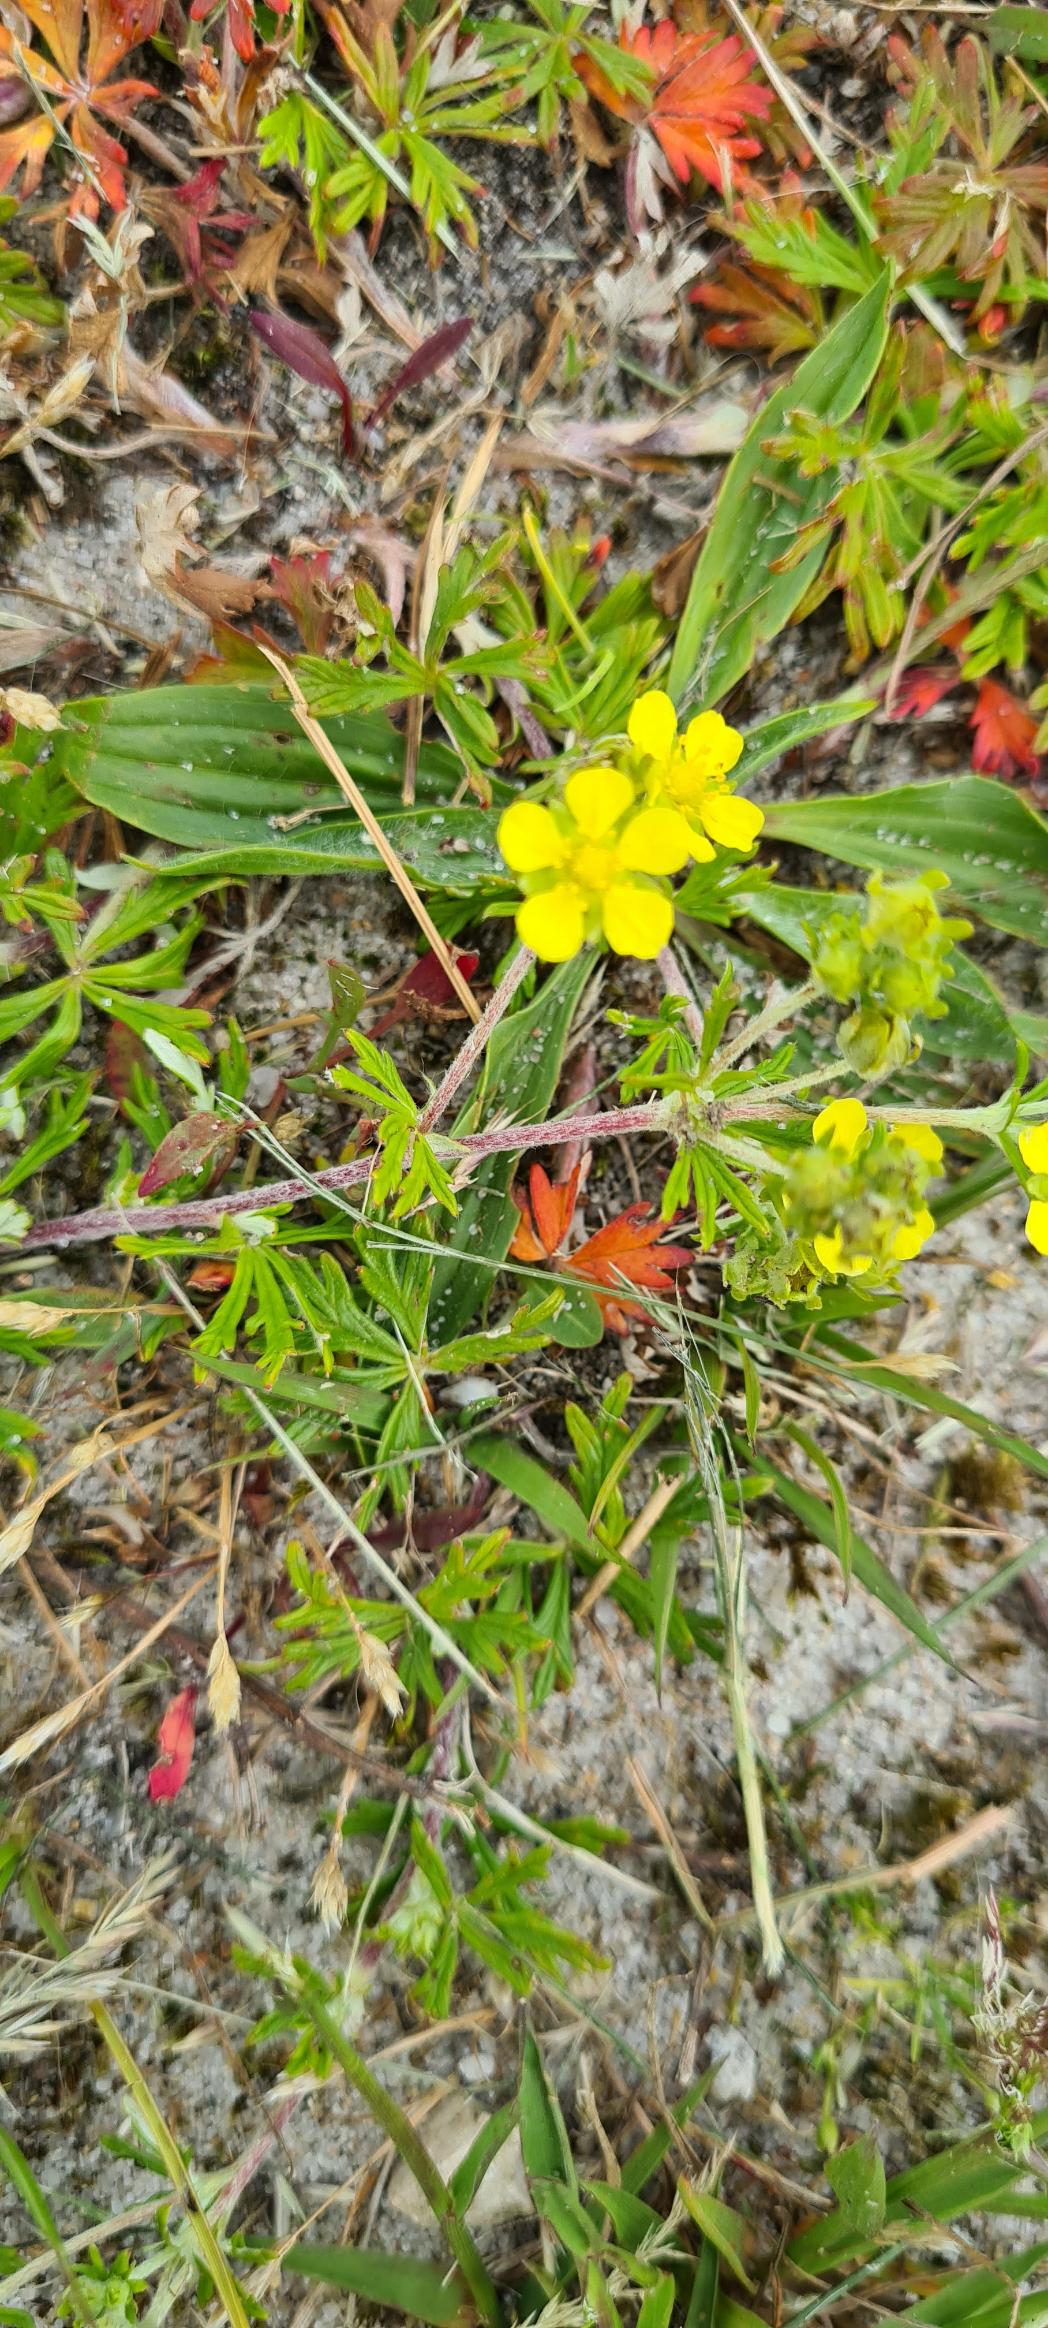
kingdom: Plantae
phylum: Tracheophyta
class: Magnoliopsida
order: Rosales
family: Rosaceae
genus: Potentilla
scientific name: Potentilla argentea
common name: Sølv-potentil
